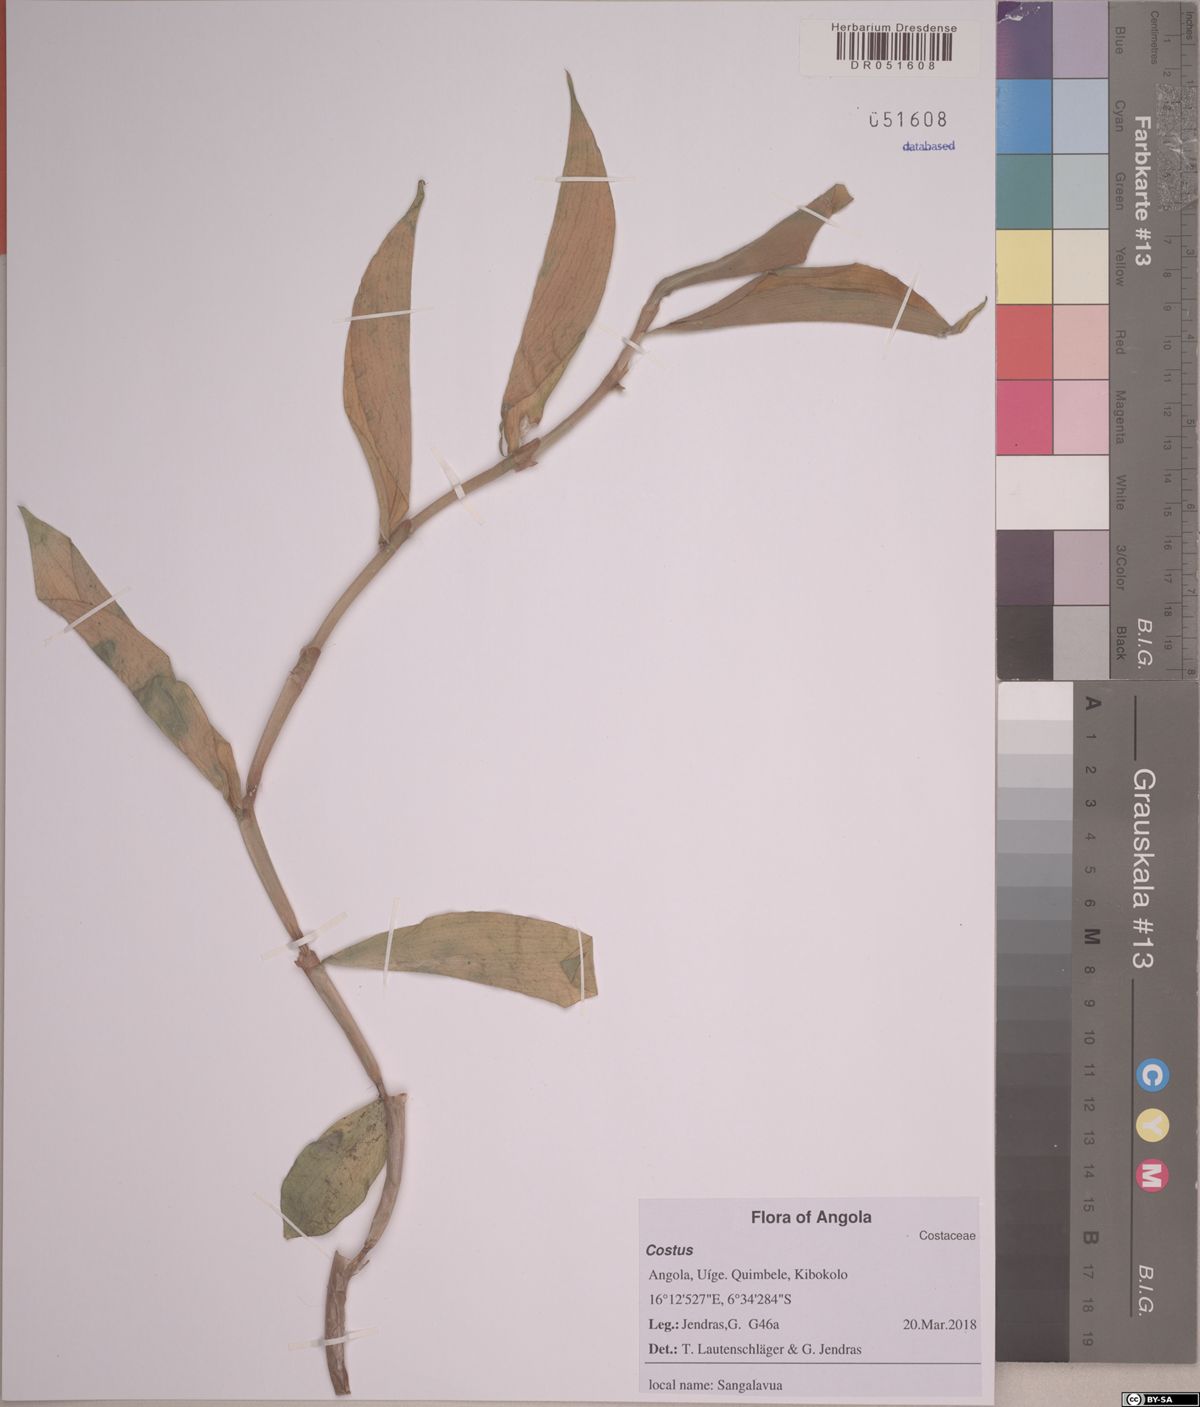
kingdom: Plantae
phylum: Tracheophyta
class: Liliopsida
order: Zingiberales
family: Costaceae
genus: Costus
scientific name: Costus
